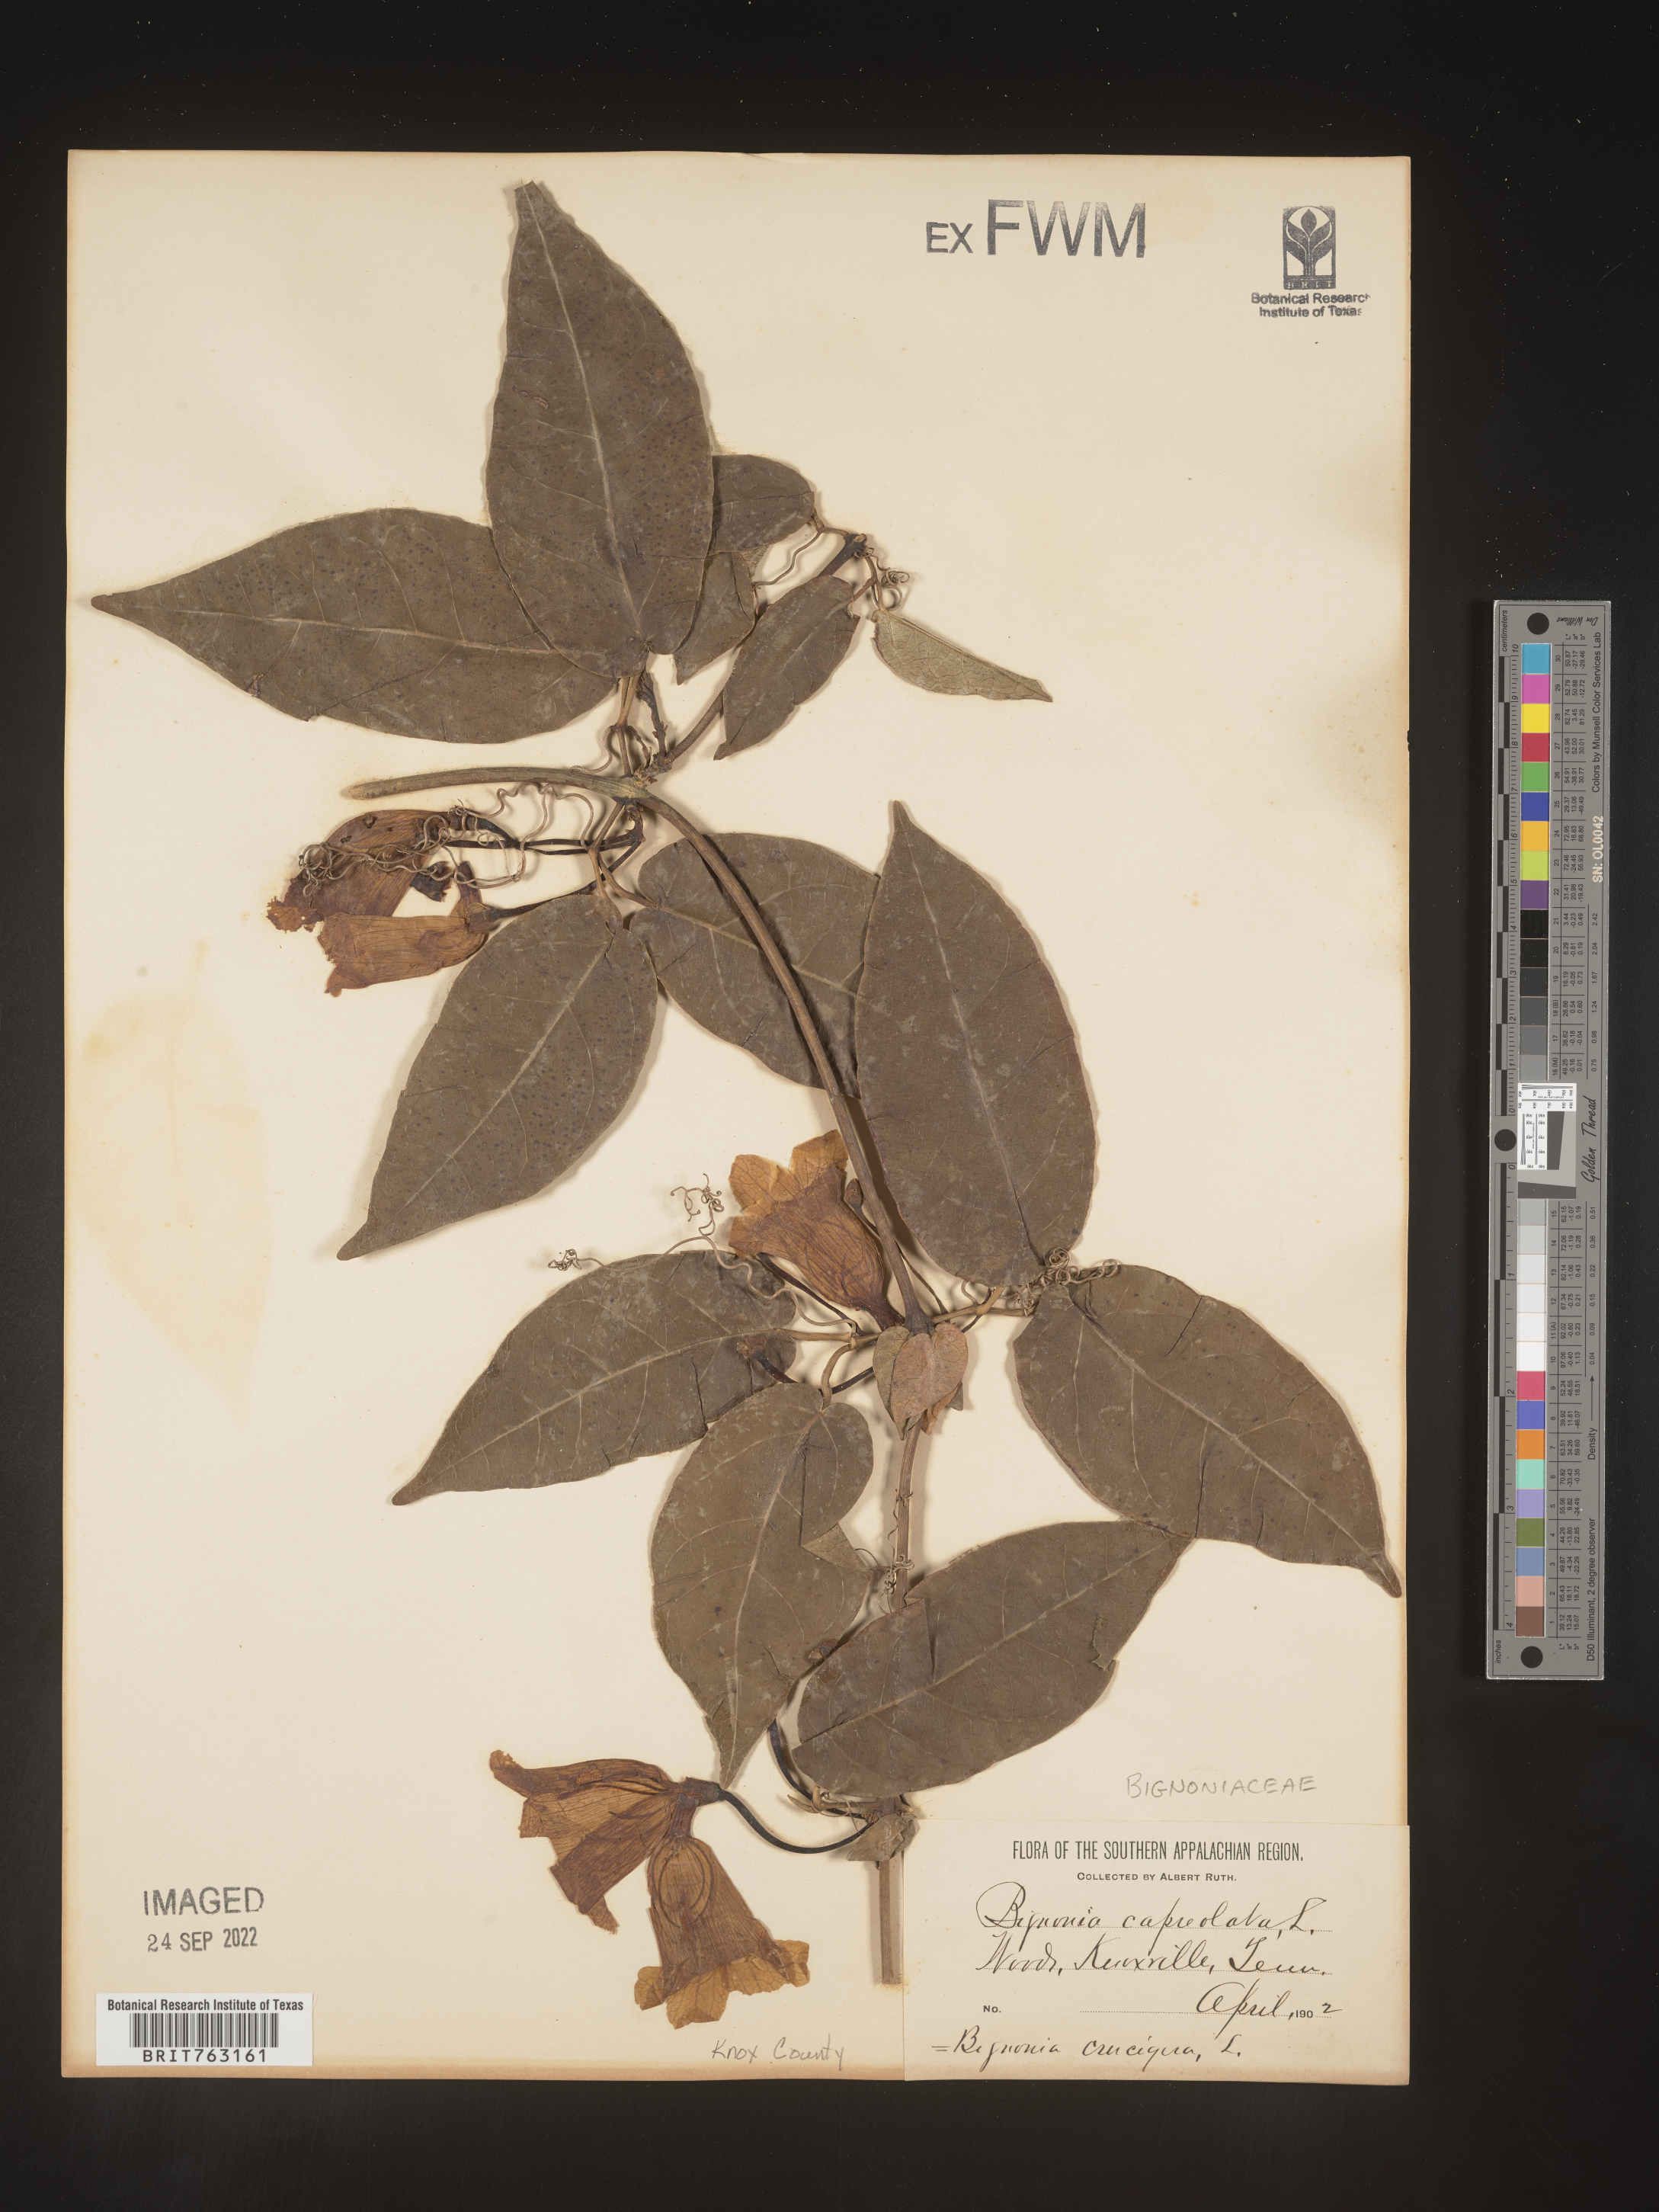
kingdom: Plantae
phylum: Tracheophyta
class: Magnoliopsida
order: Lamiales
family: Bignoniaceae
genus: Bignonia
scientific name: Bignonia capreolata
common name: Crossvine
